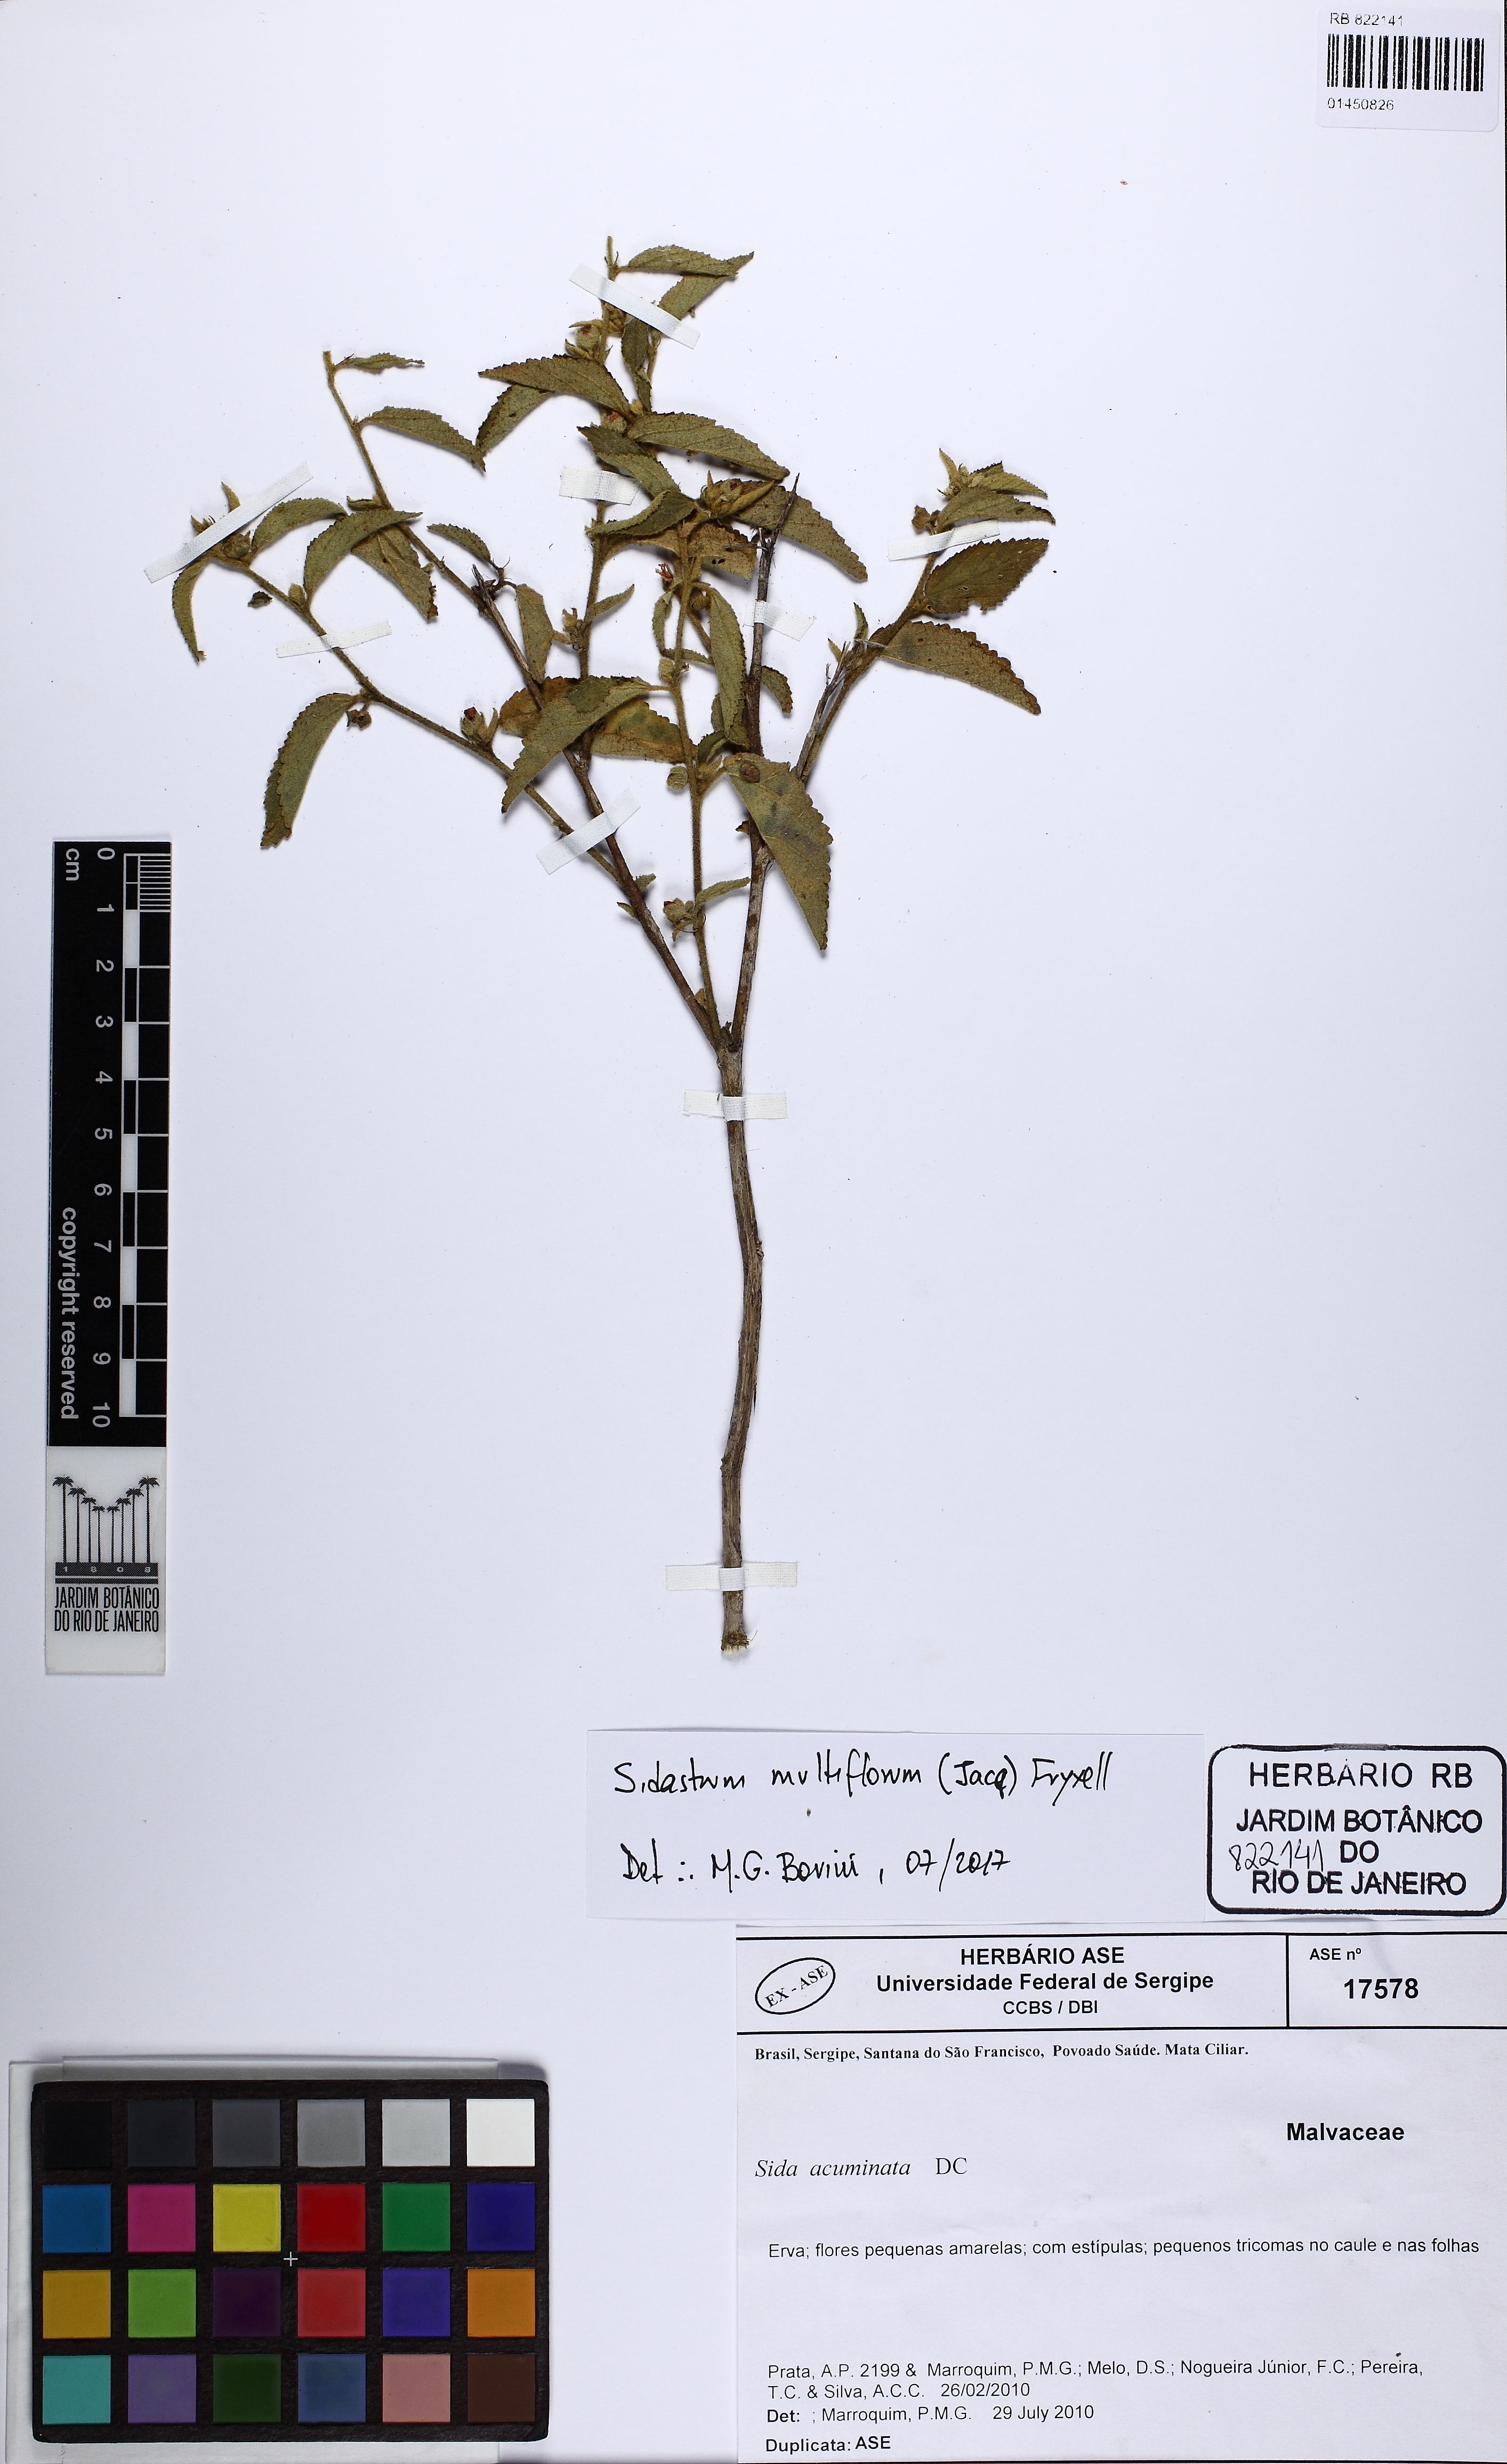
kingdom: Plantae
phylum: Tracheophyta
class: Magnoliopsida
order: Malvales
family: Malvaceae
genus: Sidastrum
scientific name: Sidastrum multiflorum
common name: Manyflower sandmallow
